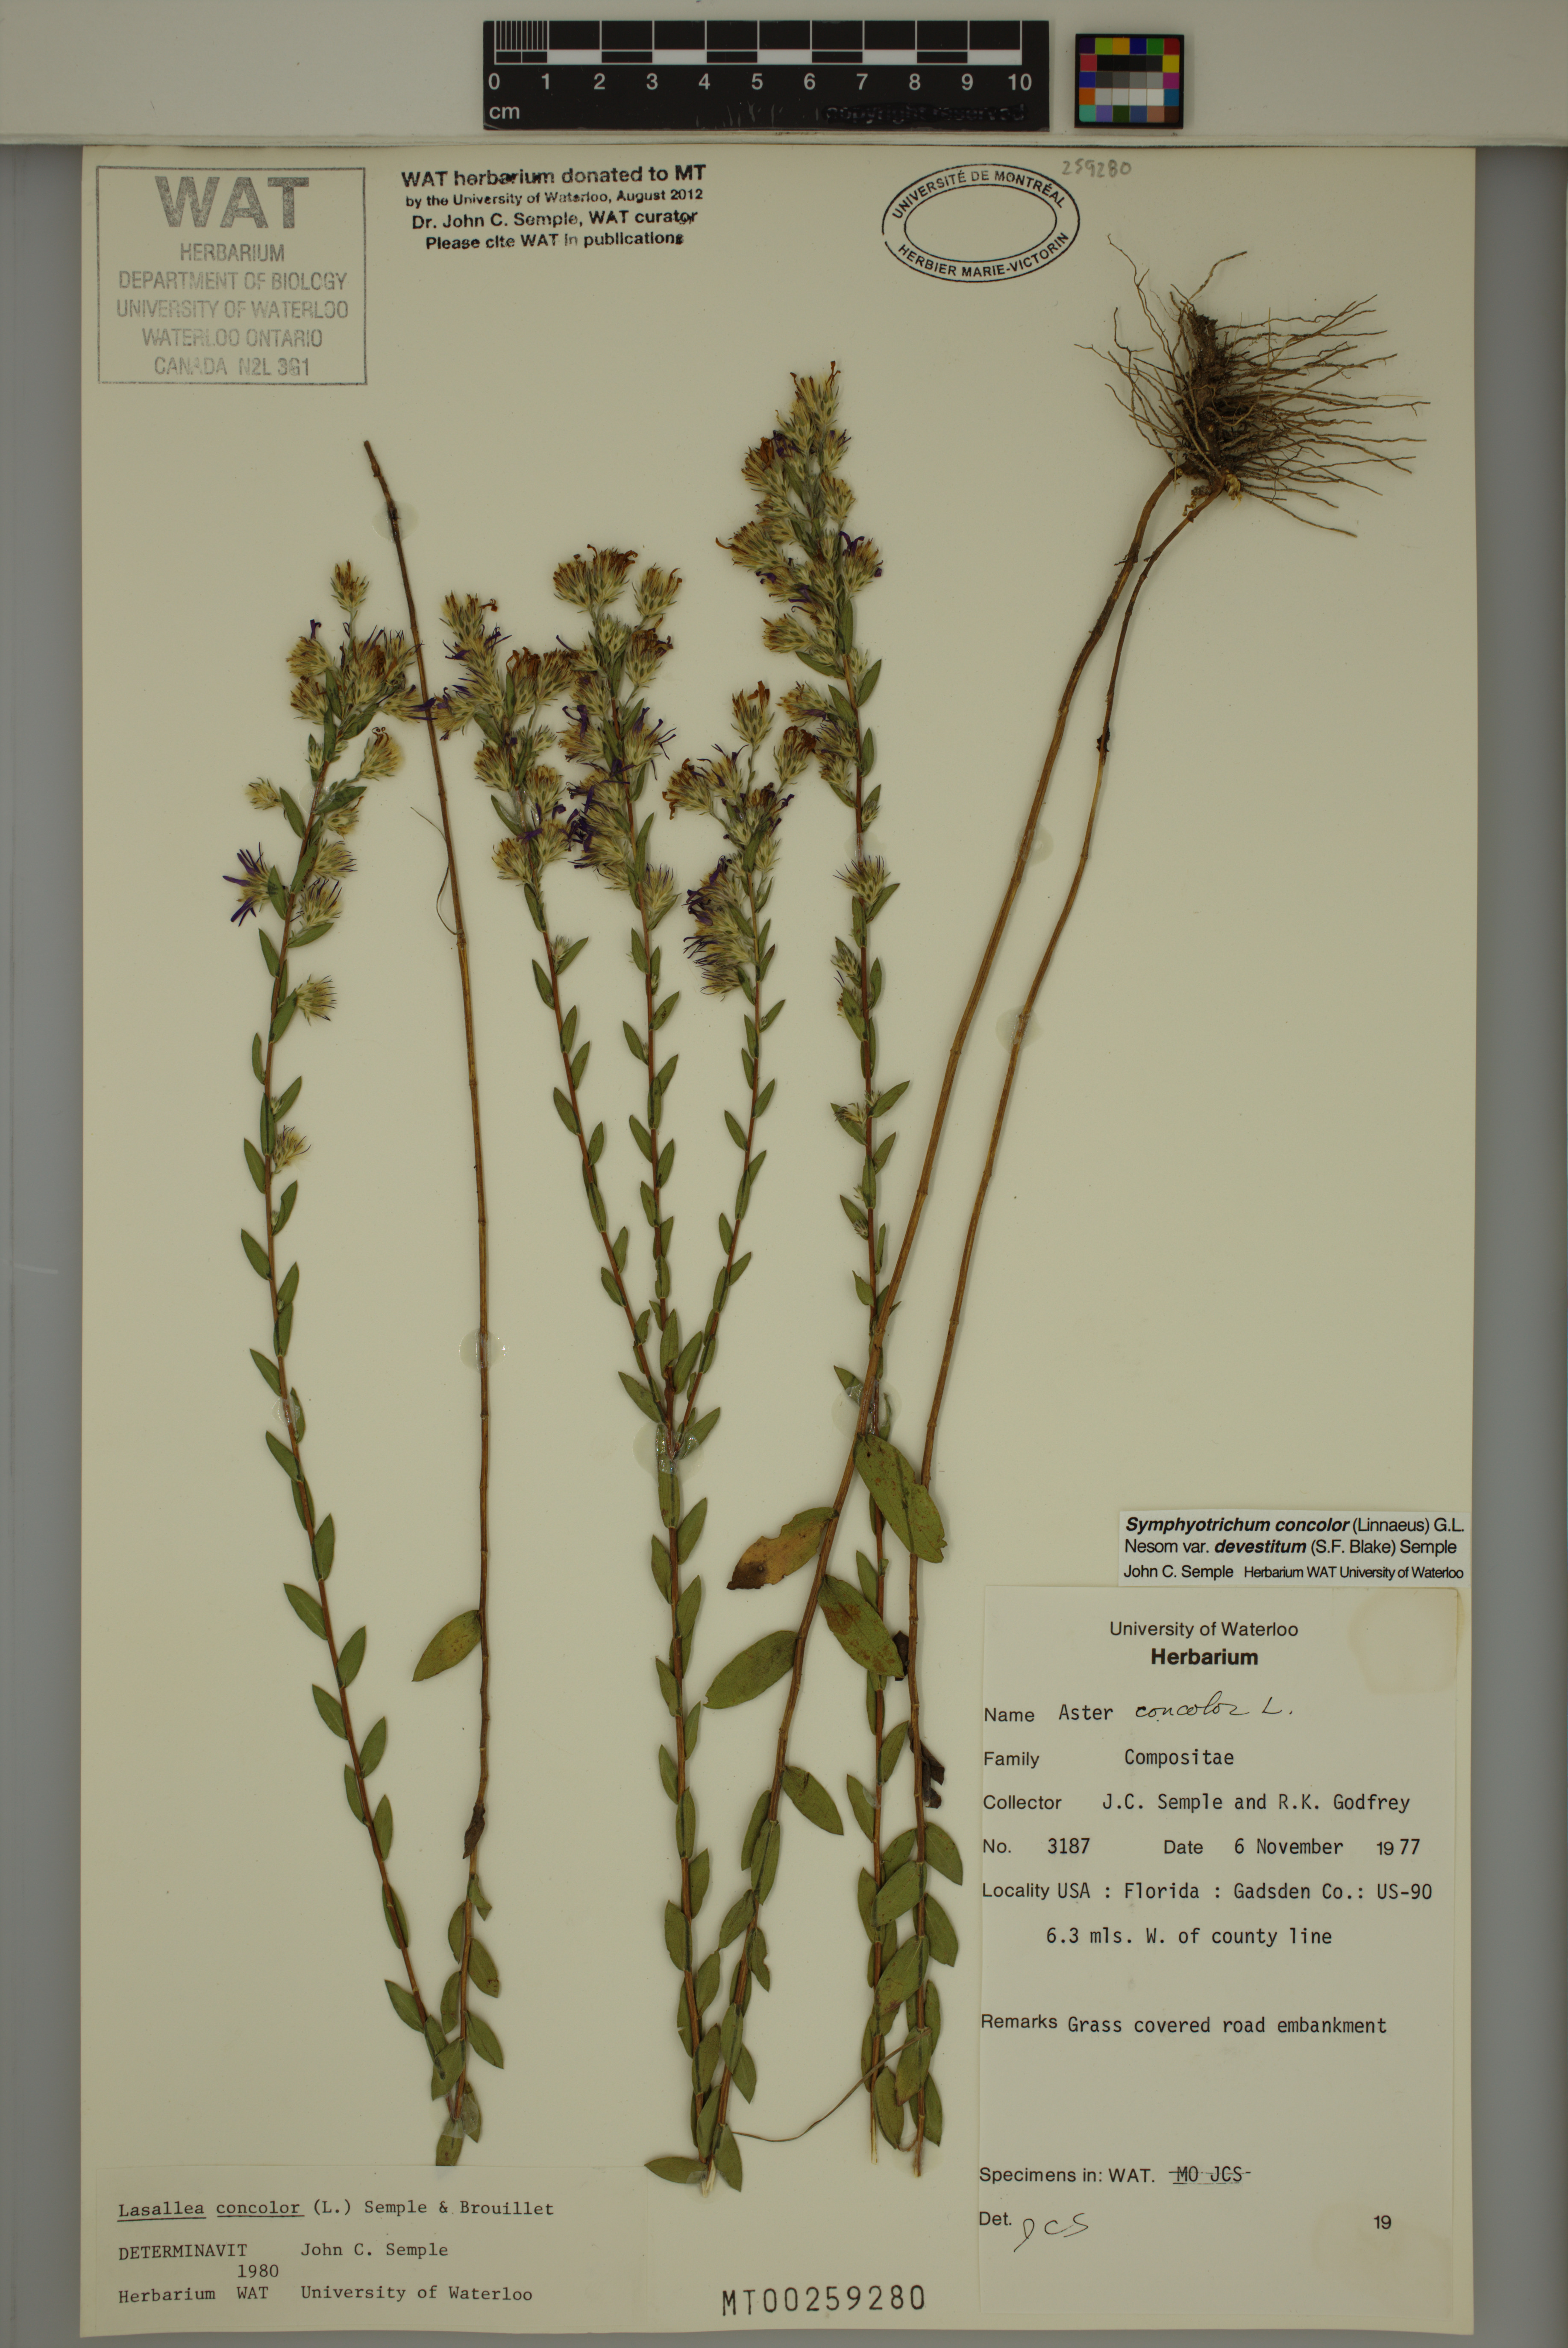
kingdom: Plantae
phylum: Tracheophyta
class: Magnoliopsida
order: Asterales
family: Asteraceae
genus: Symphyotrichum
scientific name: Symphyotrichum concolor
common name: Eastern silver aster
